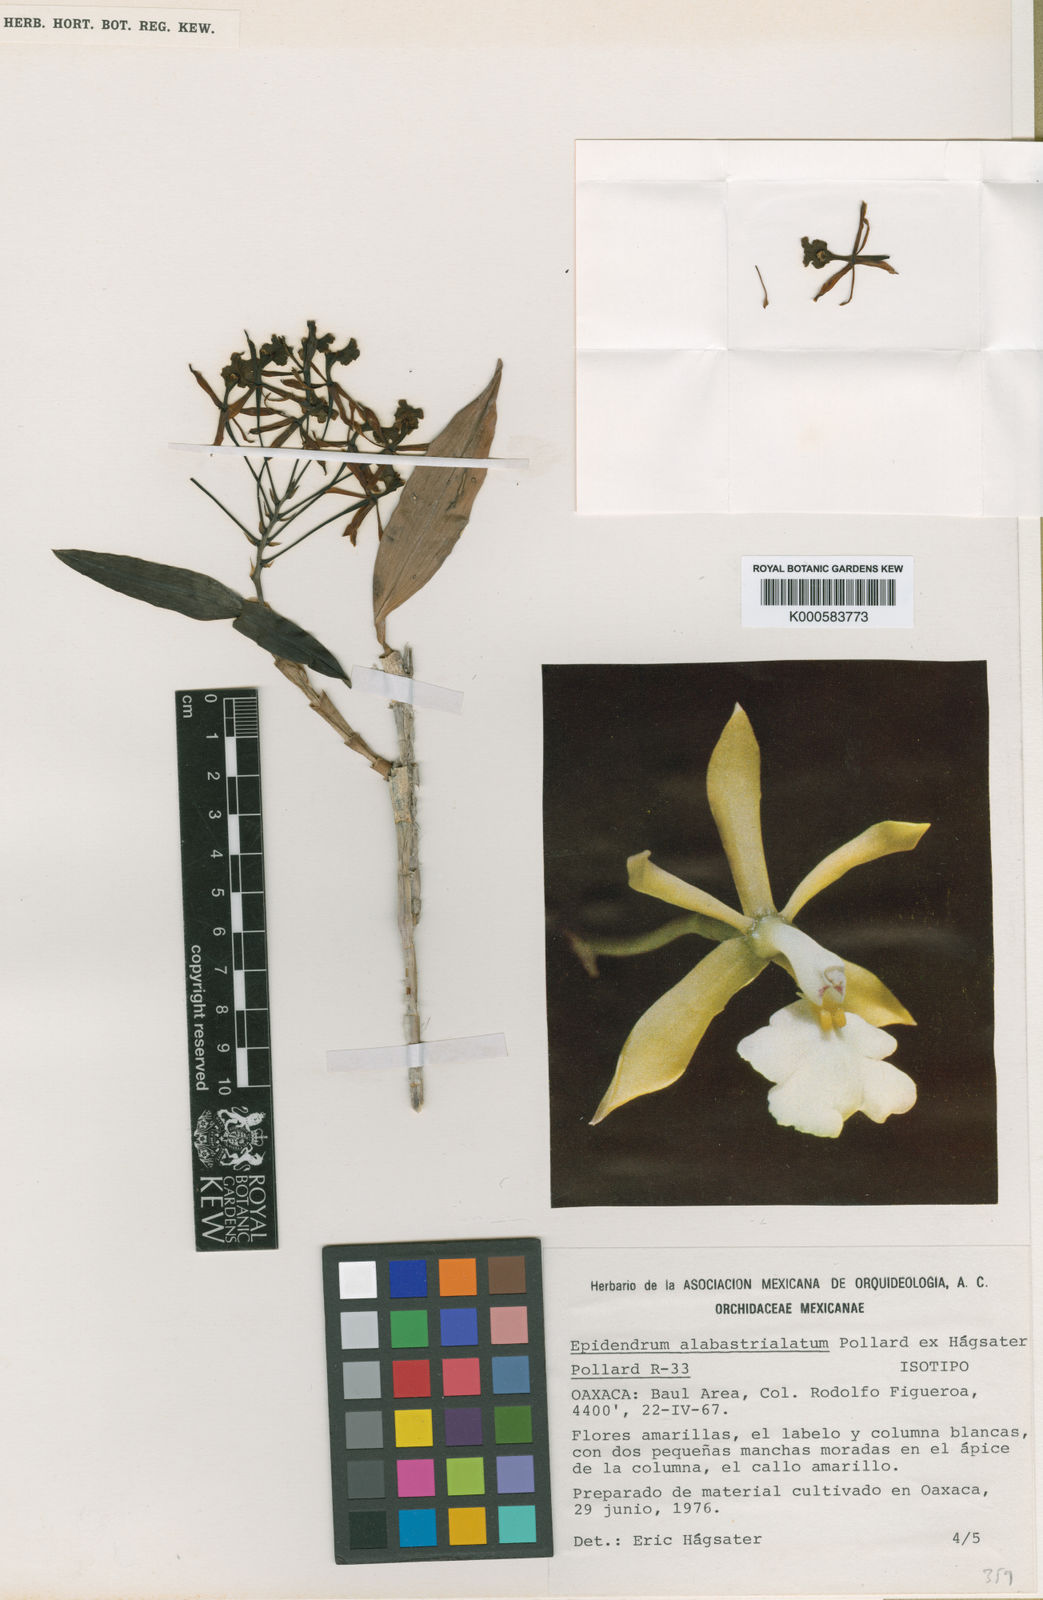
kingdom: Plantae
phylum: Tracheophyta
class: Liliopsida
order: Asparagales
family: Orchidaceae
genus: Epidendrum
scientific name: Epidendrum
